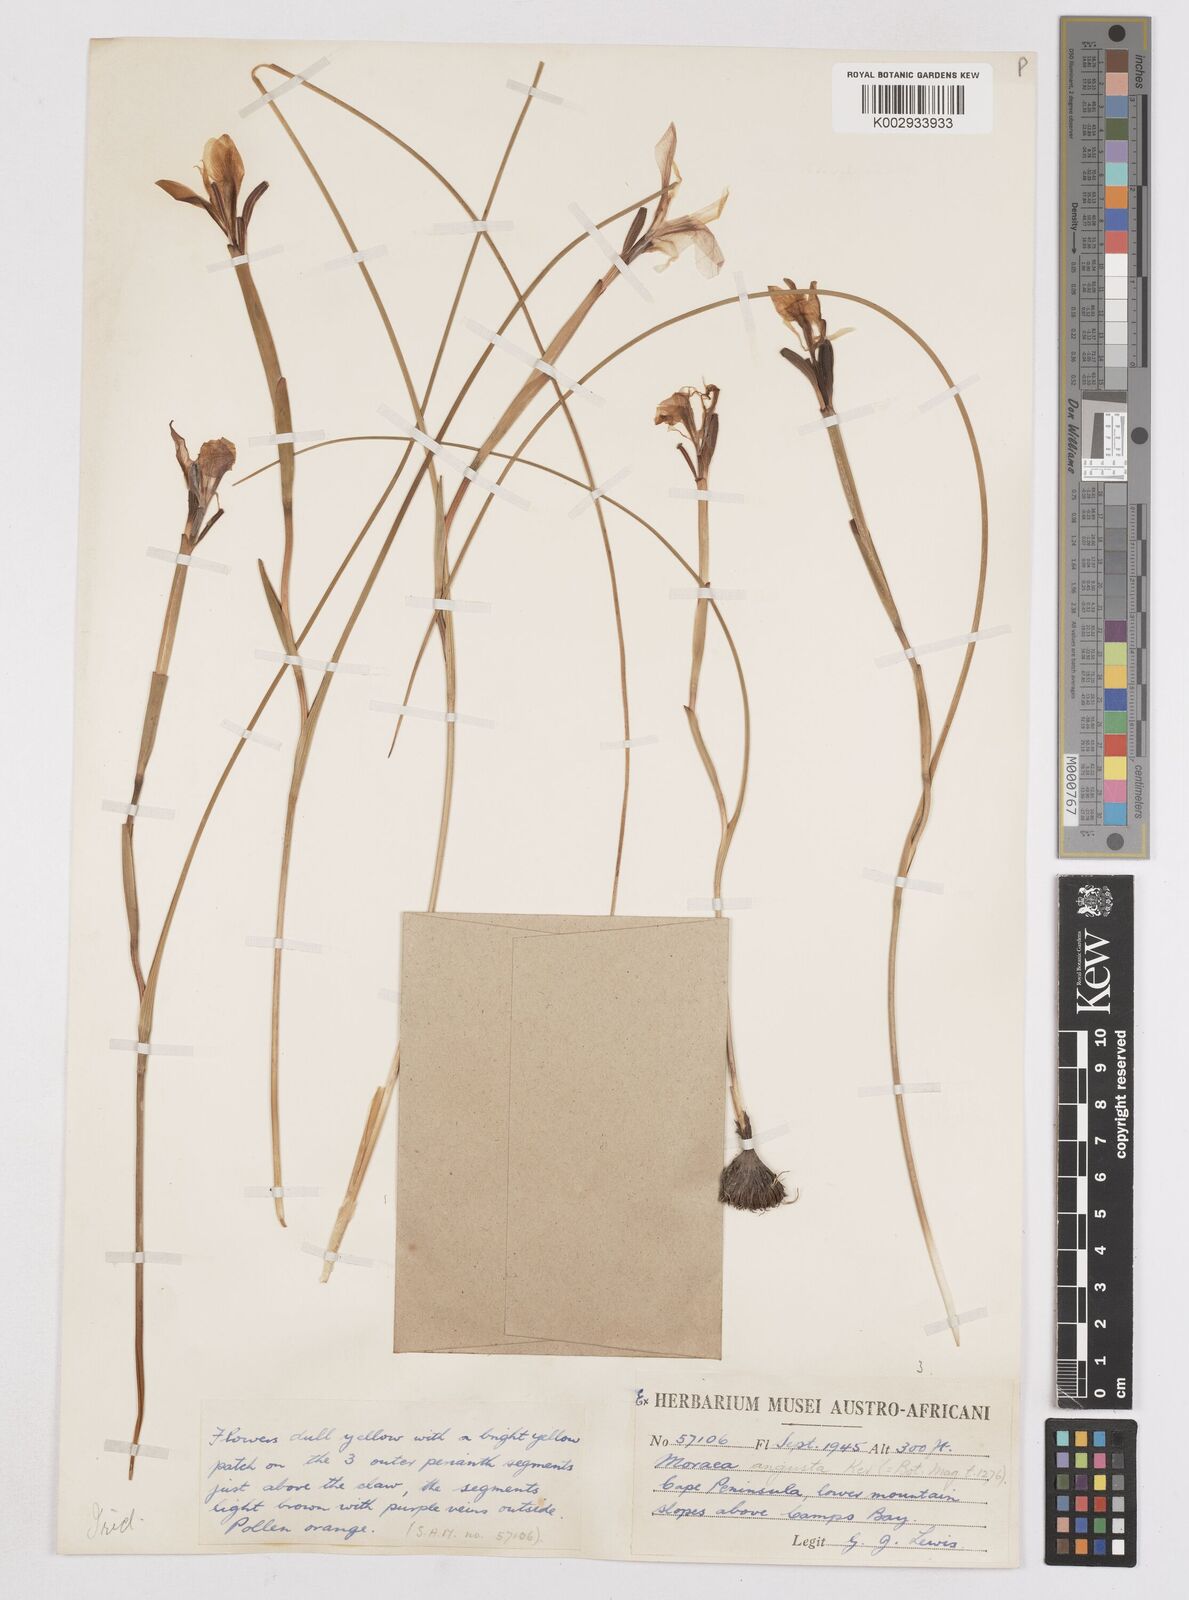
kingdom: Plantae
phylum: Tracheophyta
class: Liliopsida
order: Asparagales
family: Iridaceae
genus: Moraea
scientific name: Moraea angusta
